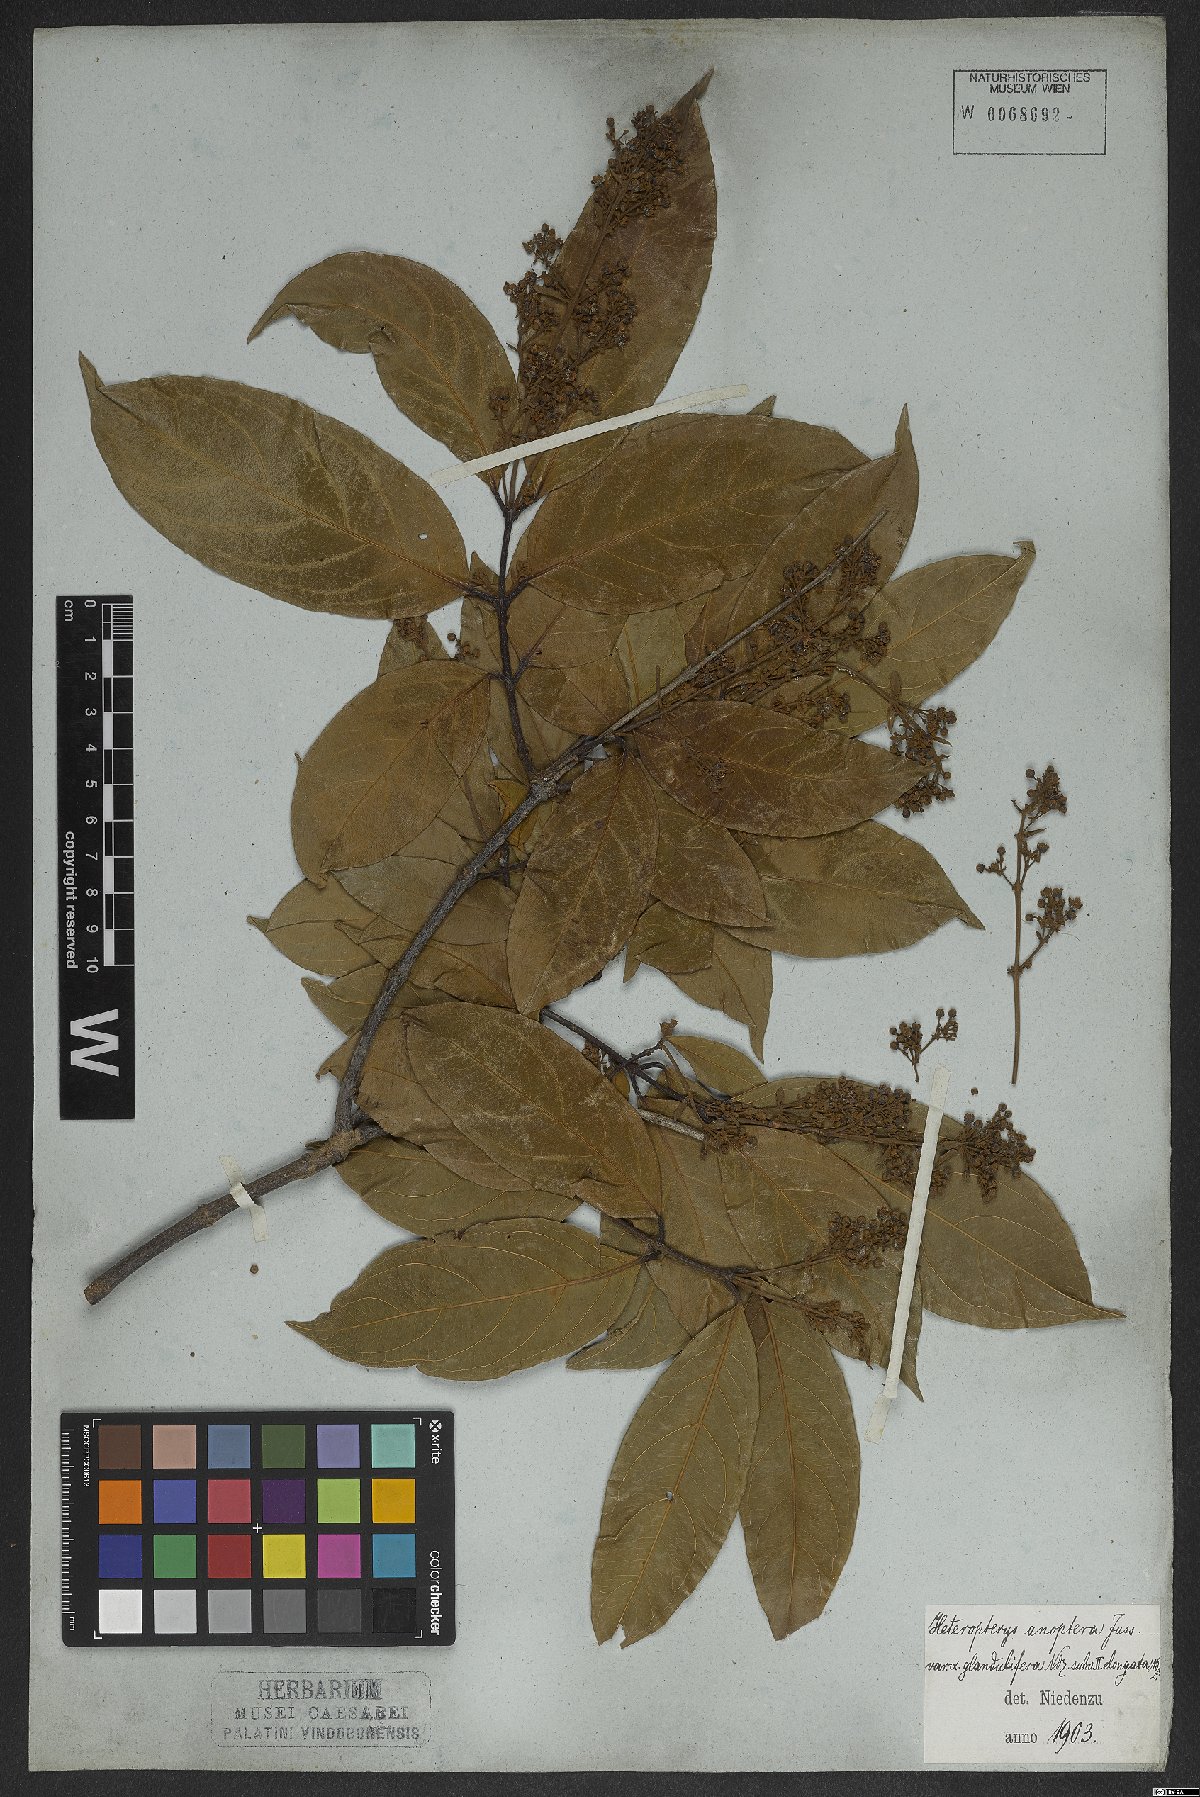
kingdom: Plantae
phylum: Tracheophyta
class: Magnoliopsida
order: Malpighiales
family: Malpighiaceae
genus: Heteropterys
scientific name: Heteropterys anoptera
